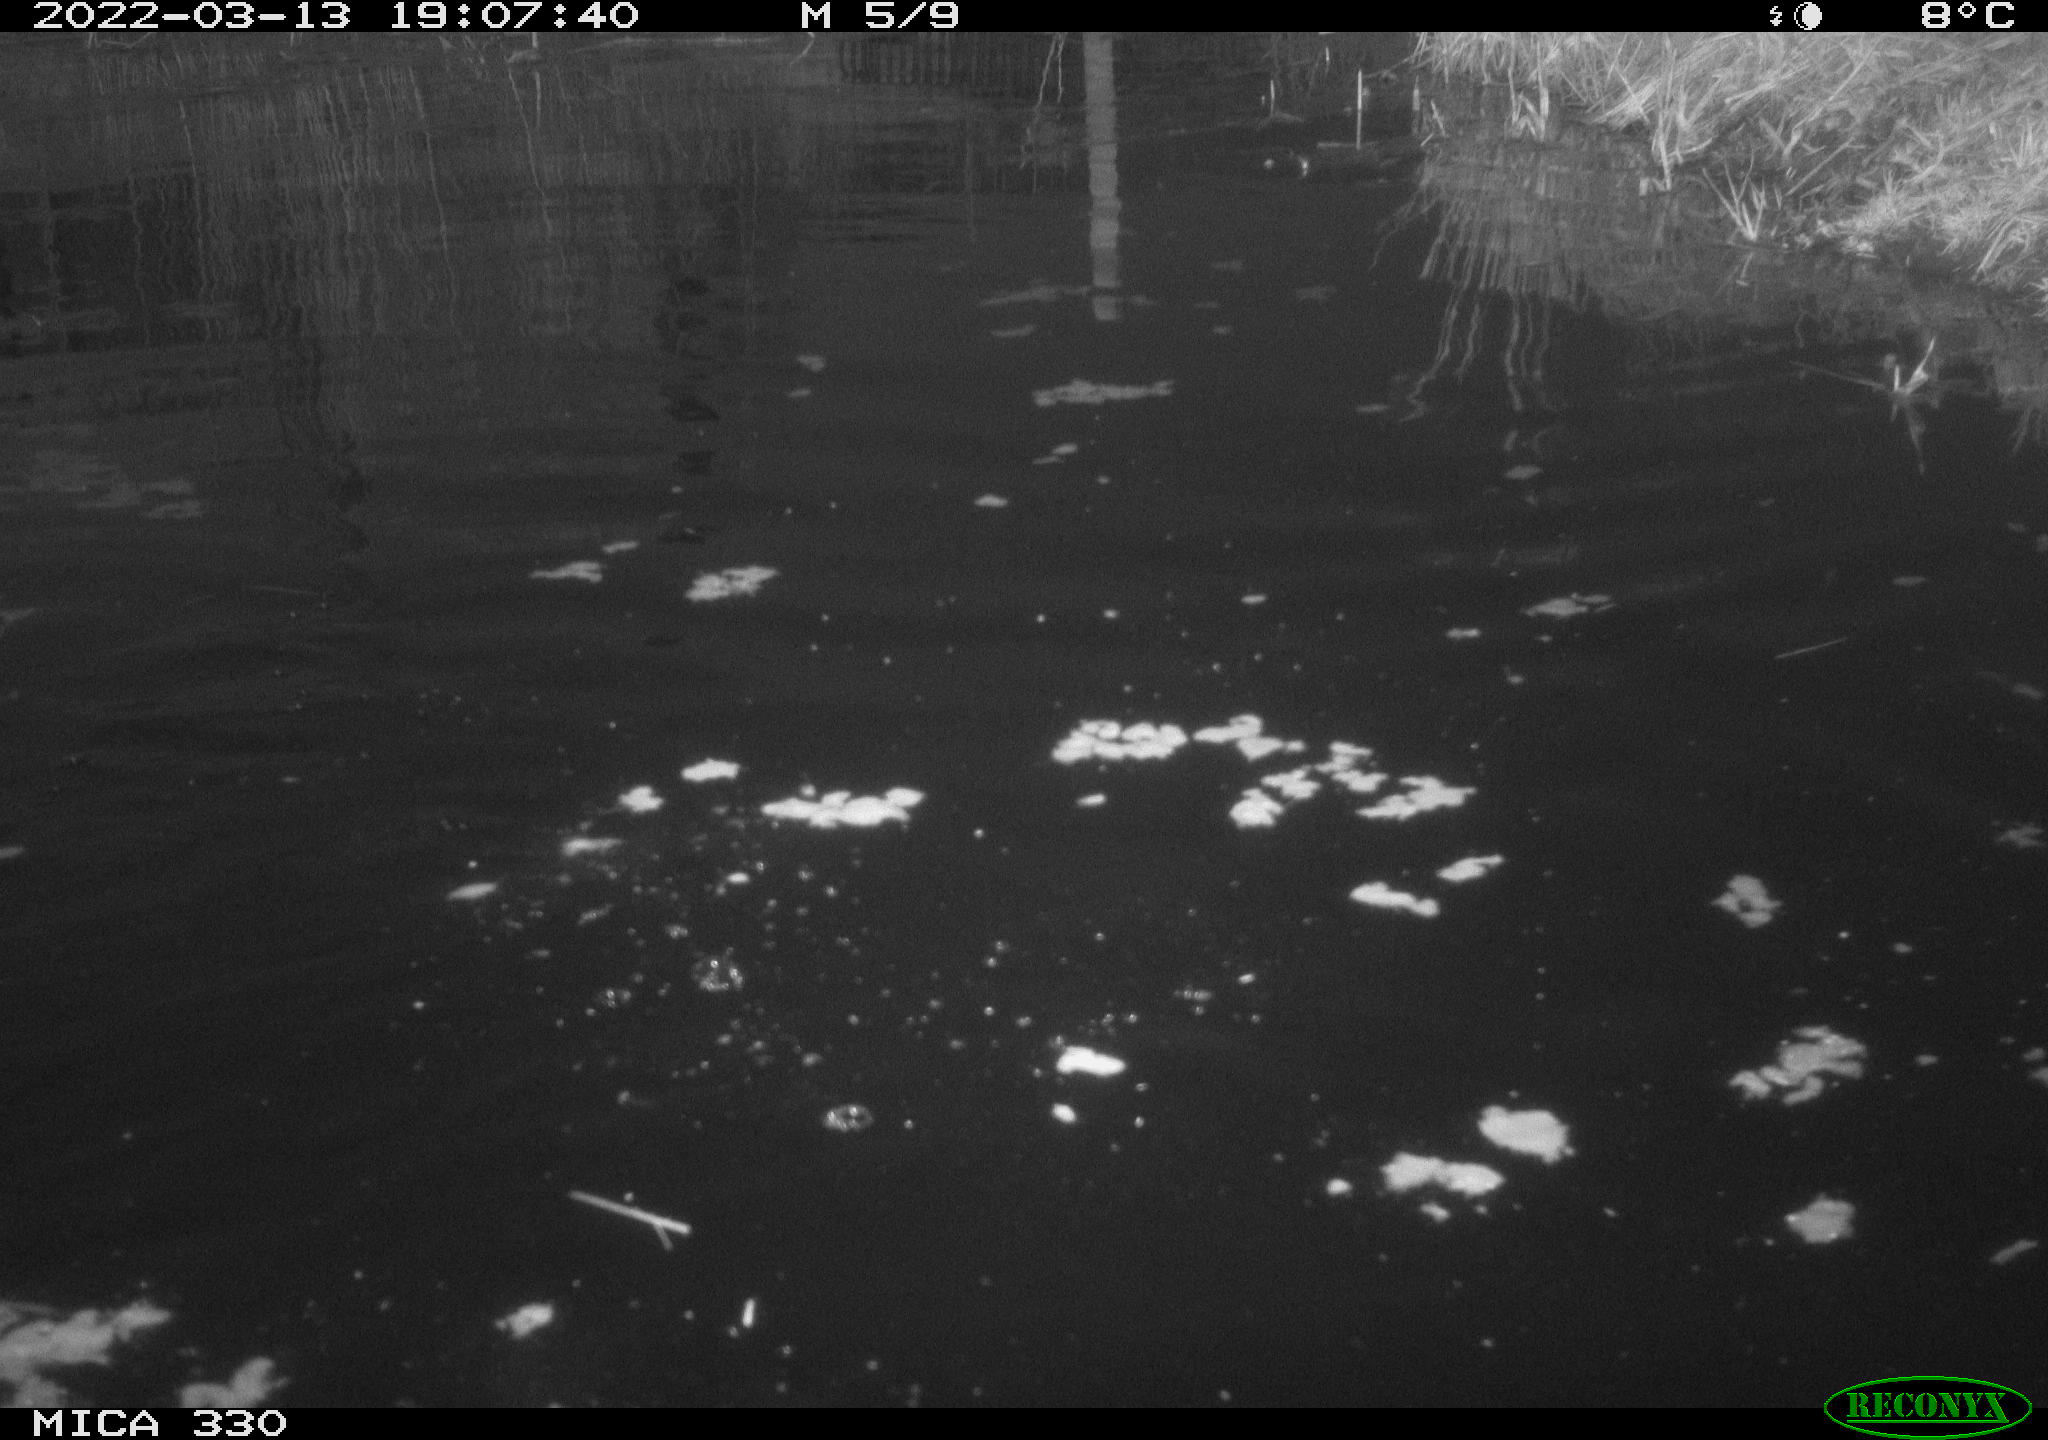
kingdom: Animalia
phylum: Chordata
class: Aves
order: Gruiformes
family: Rallidae
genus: Gallinula
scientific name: Gallinula chloropus
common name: Common moorhen
